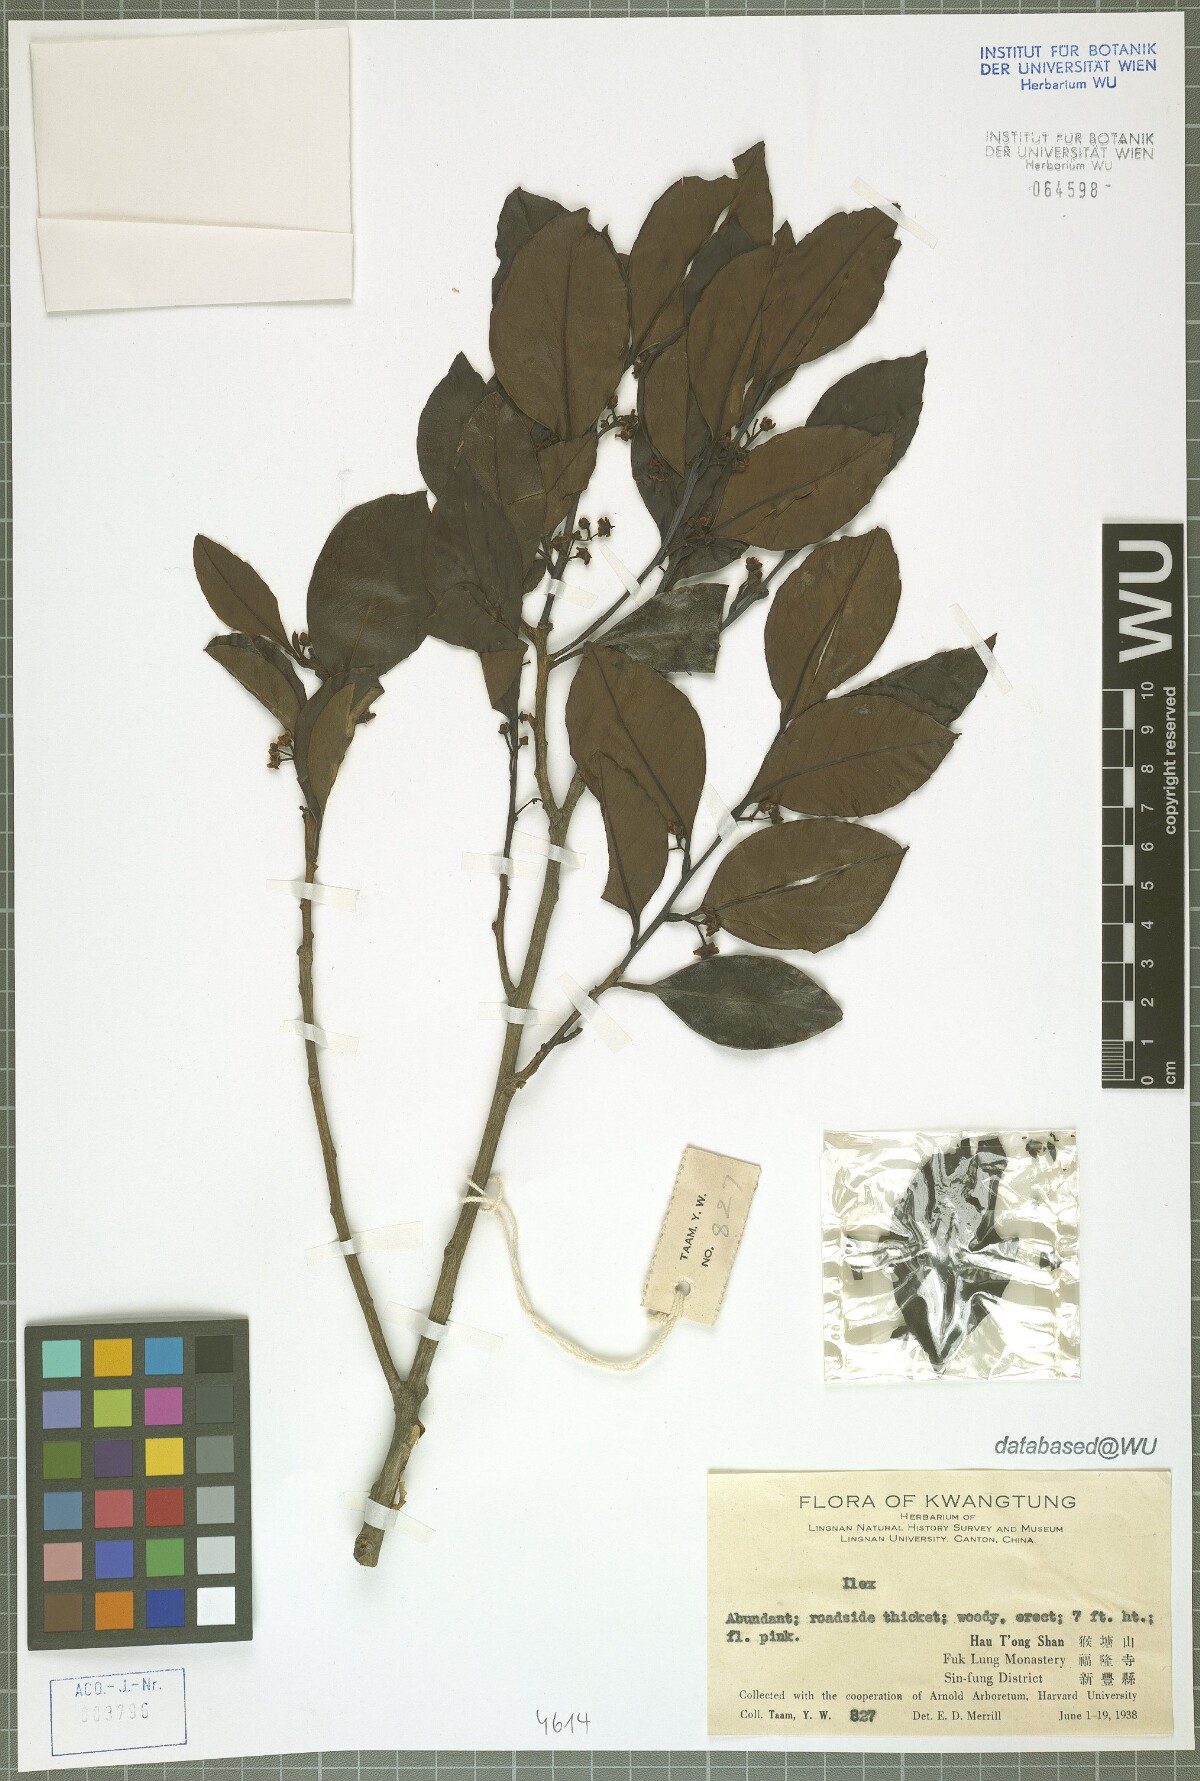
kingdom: Plantae
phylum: Tracheophyta
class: Magnoliopsida
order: Aquifoliales
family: Aquifoliaceae
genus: Ilex
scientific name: Ilex
